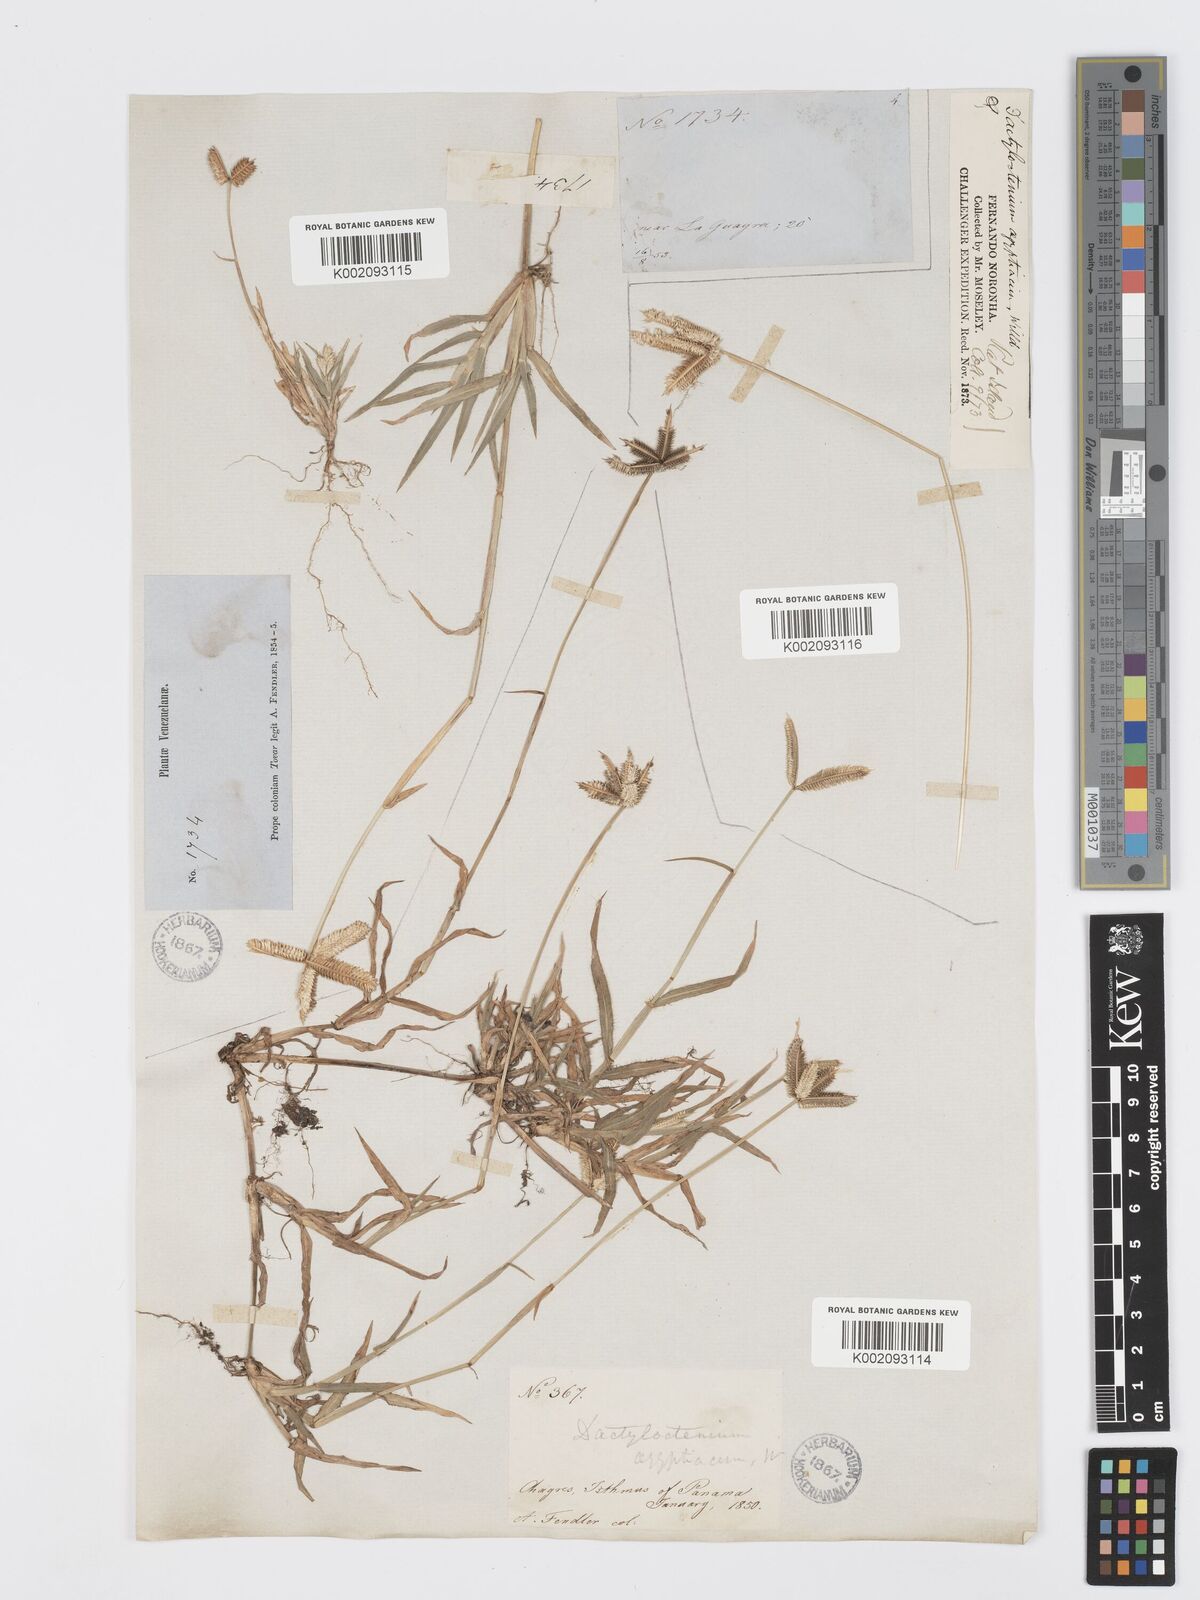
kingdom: Plantae
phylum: Tracheophyta
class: Liliopsida
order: Poales
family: Poaceae
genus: Dactyloctenium
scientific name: Dactyloctenium aegyptium
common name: Egyptian grass
